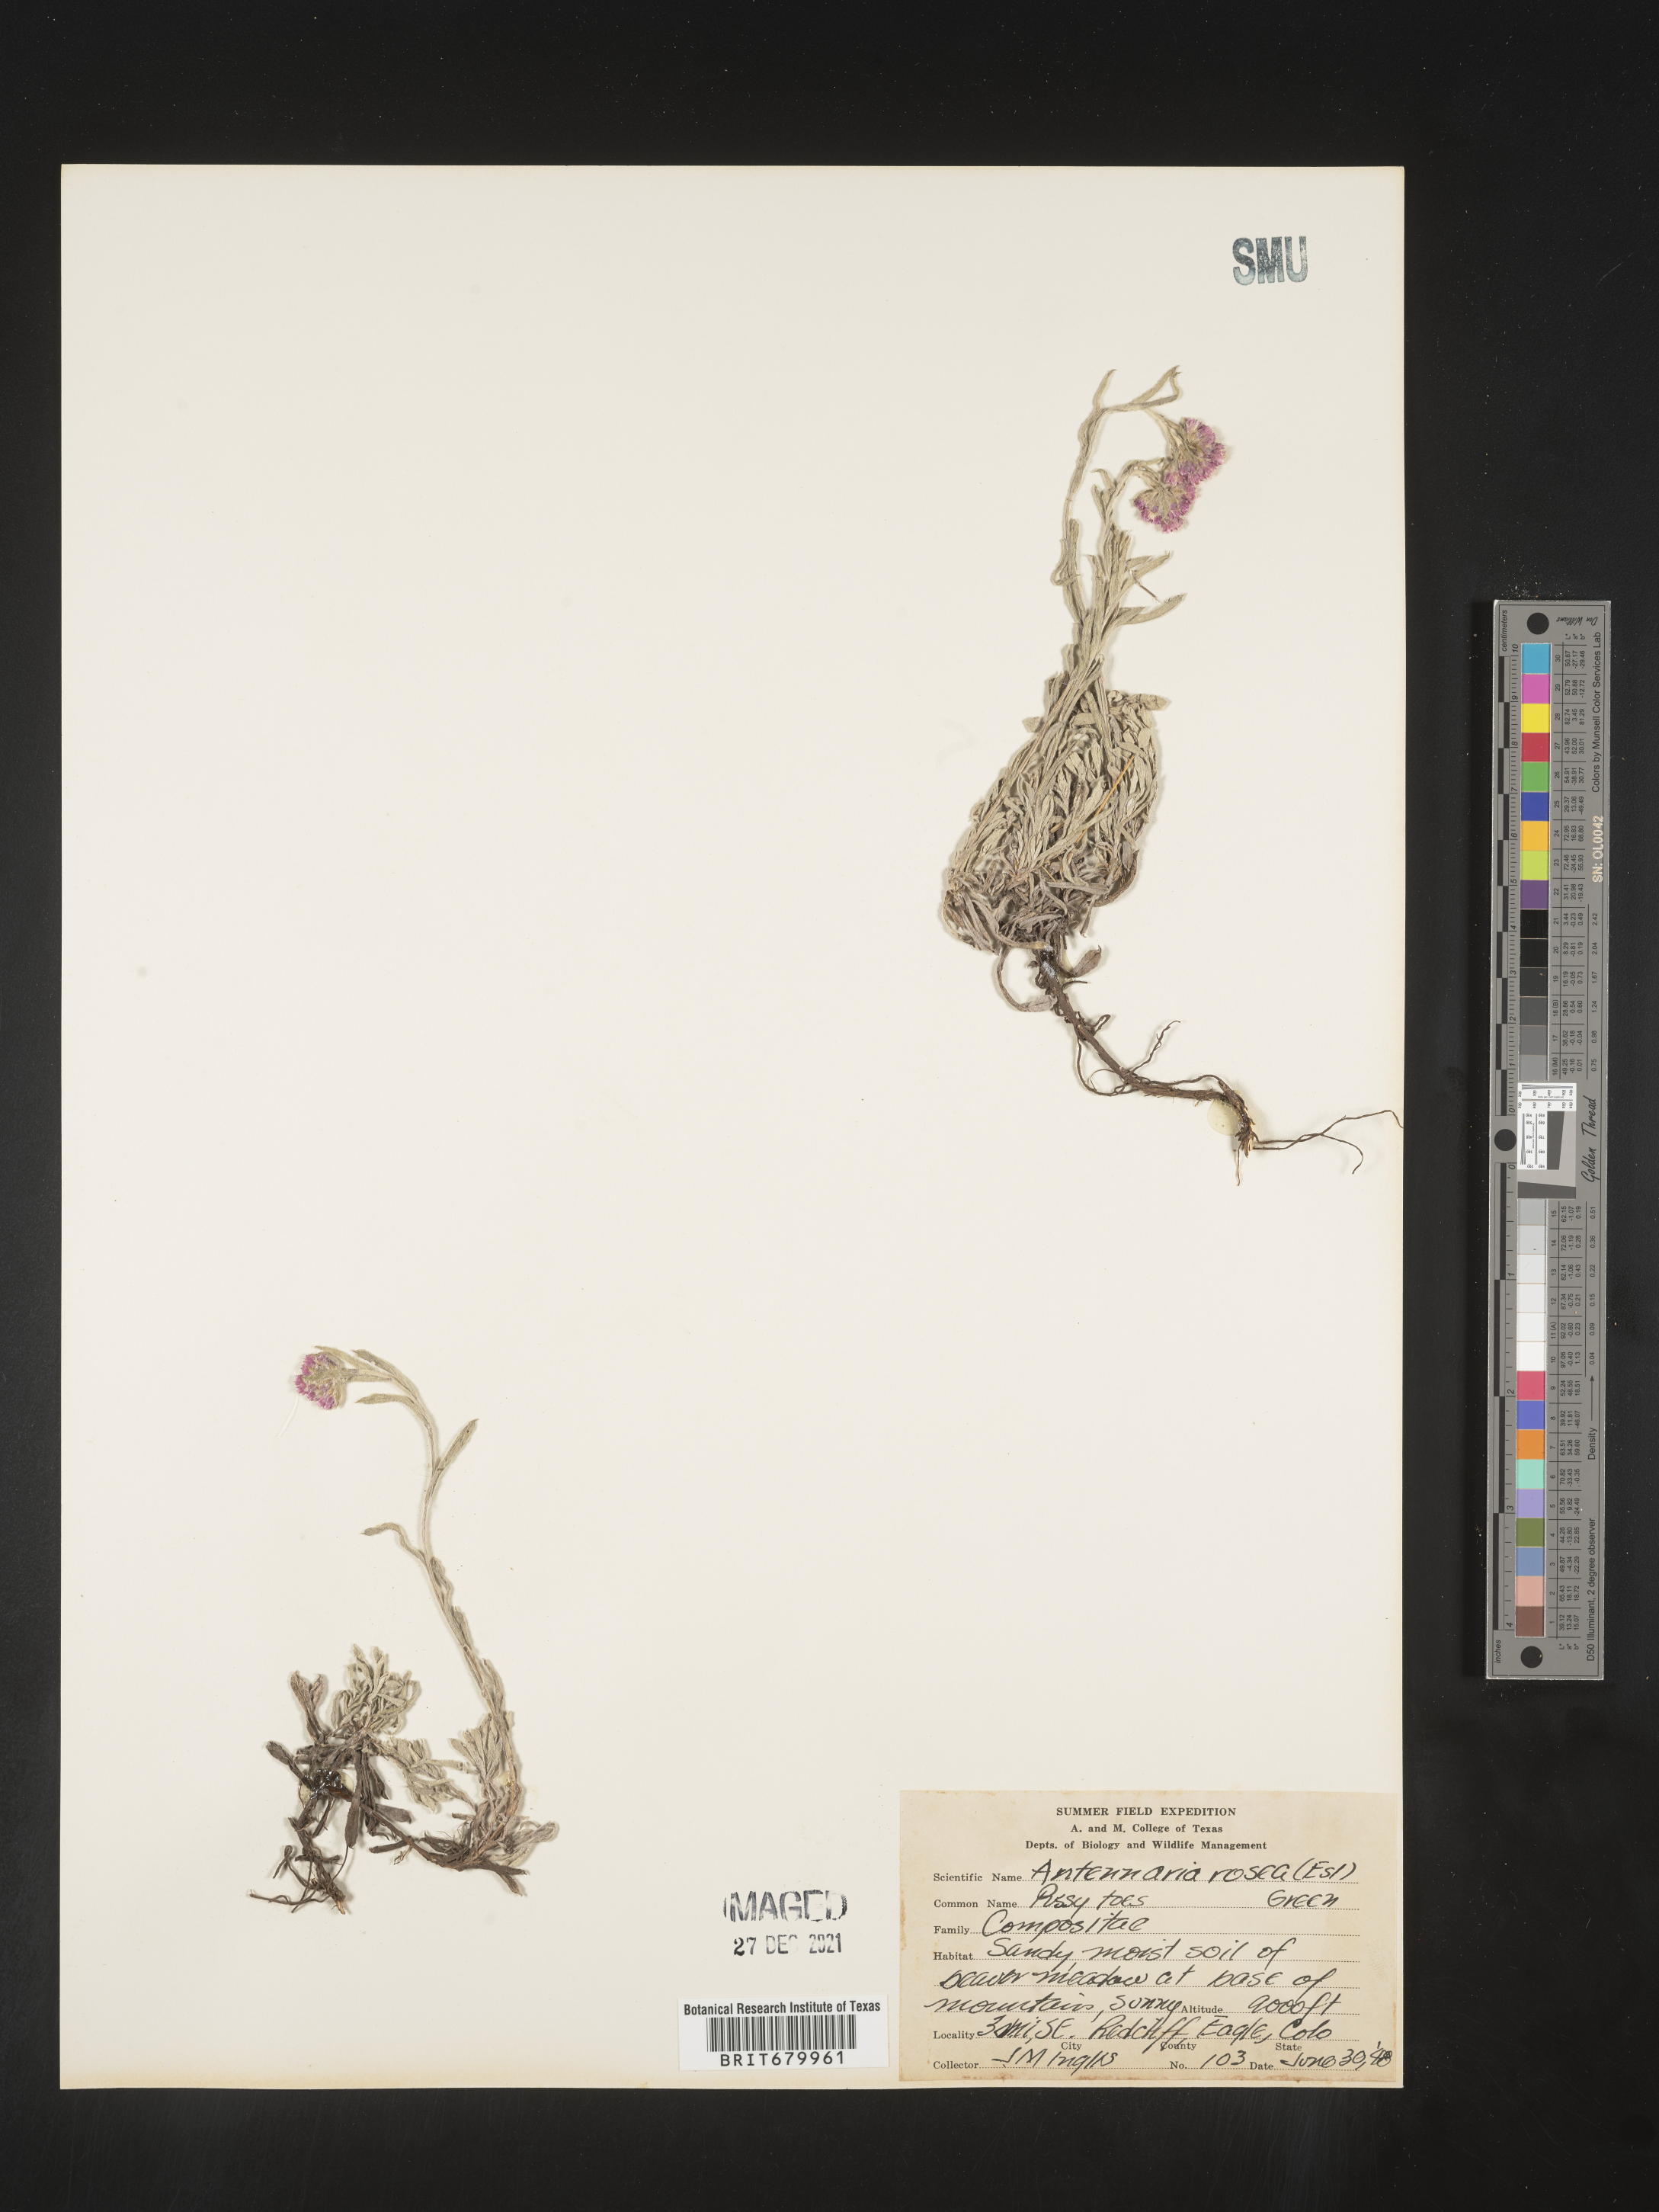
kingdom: Plantae
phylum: Tracheophyta
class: Magnoliopsida
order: Asterales
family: Asteraceae
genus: Antennaria
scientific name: Antennaria rosea
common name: Rosy pussytoes
